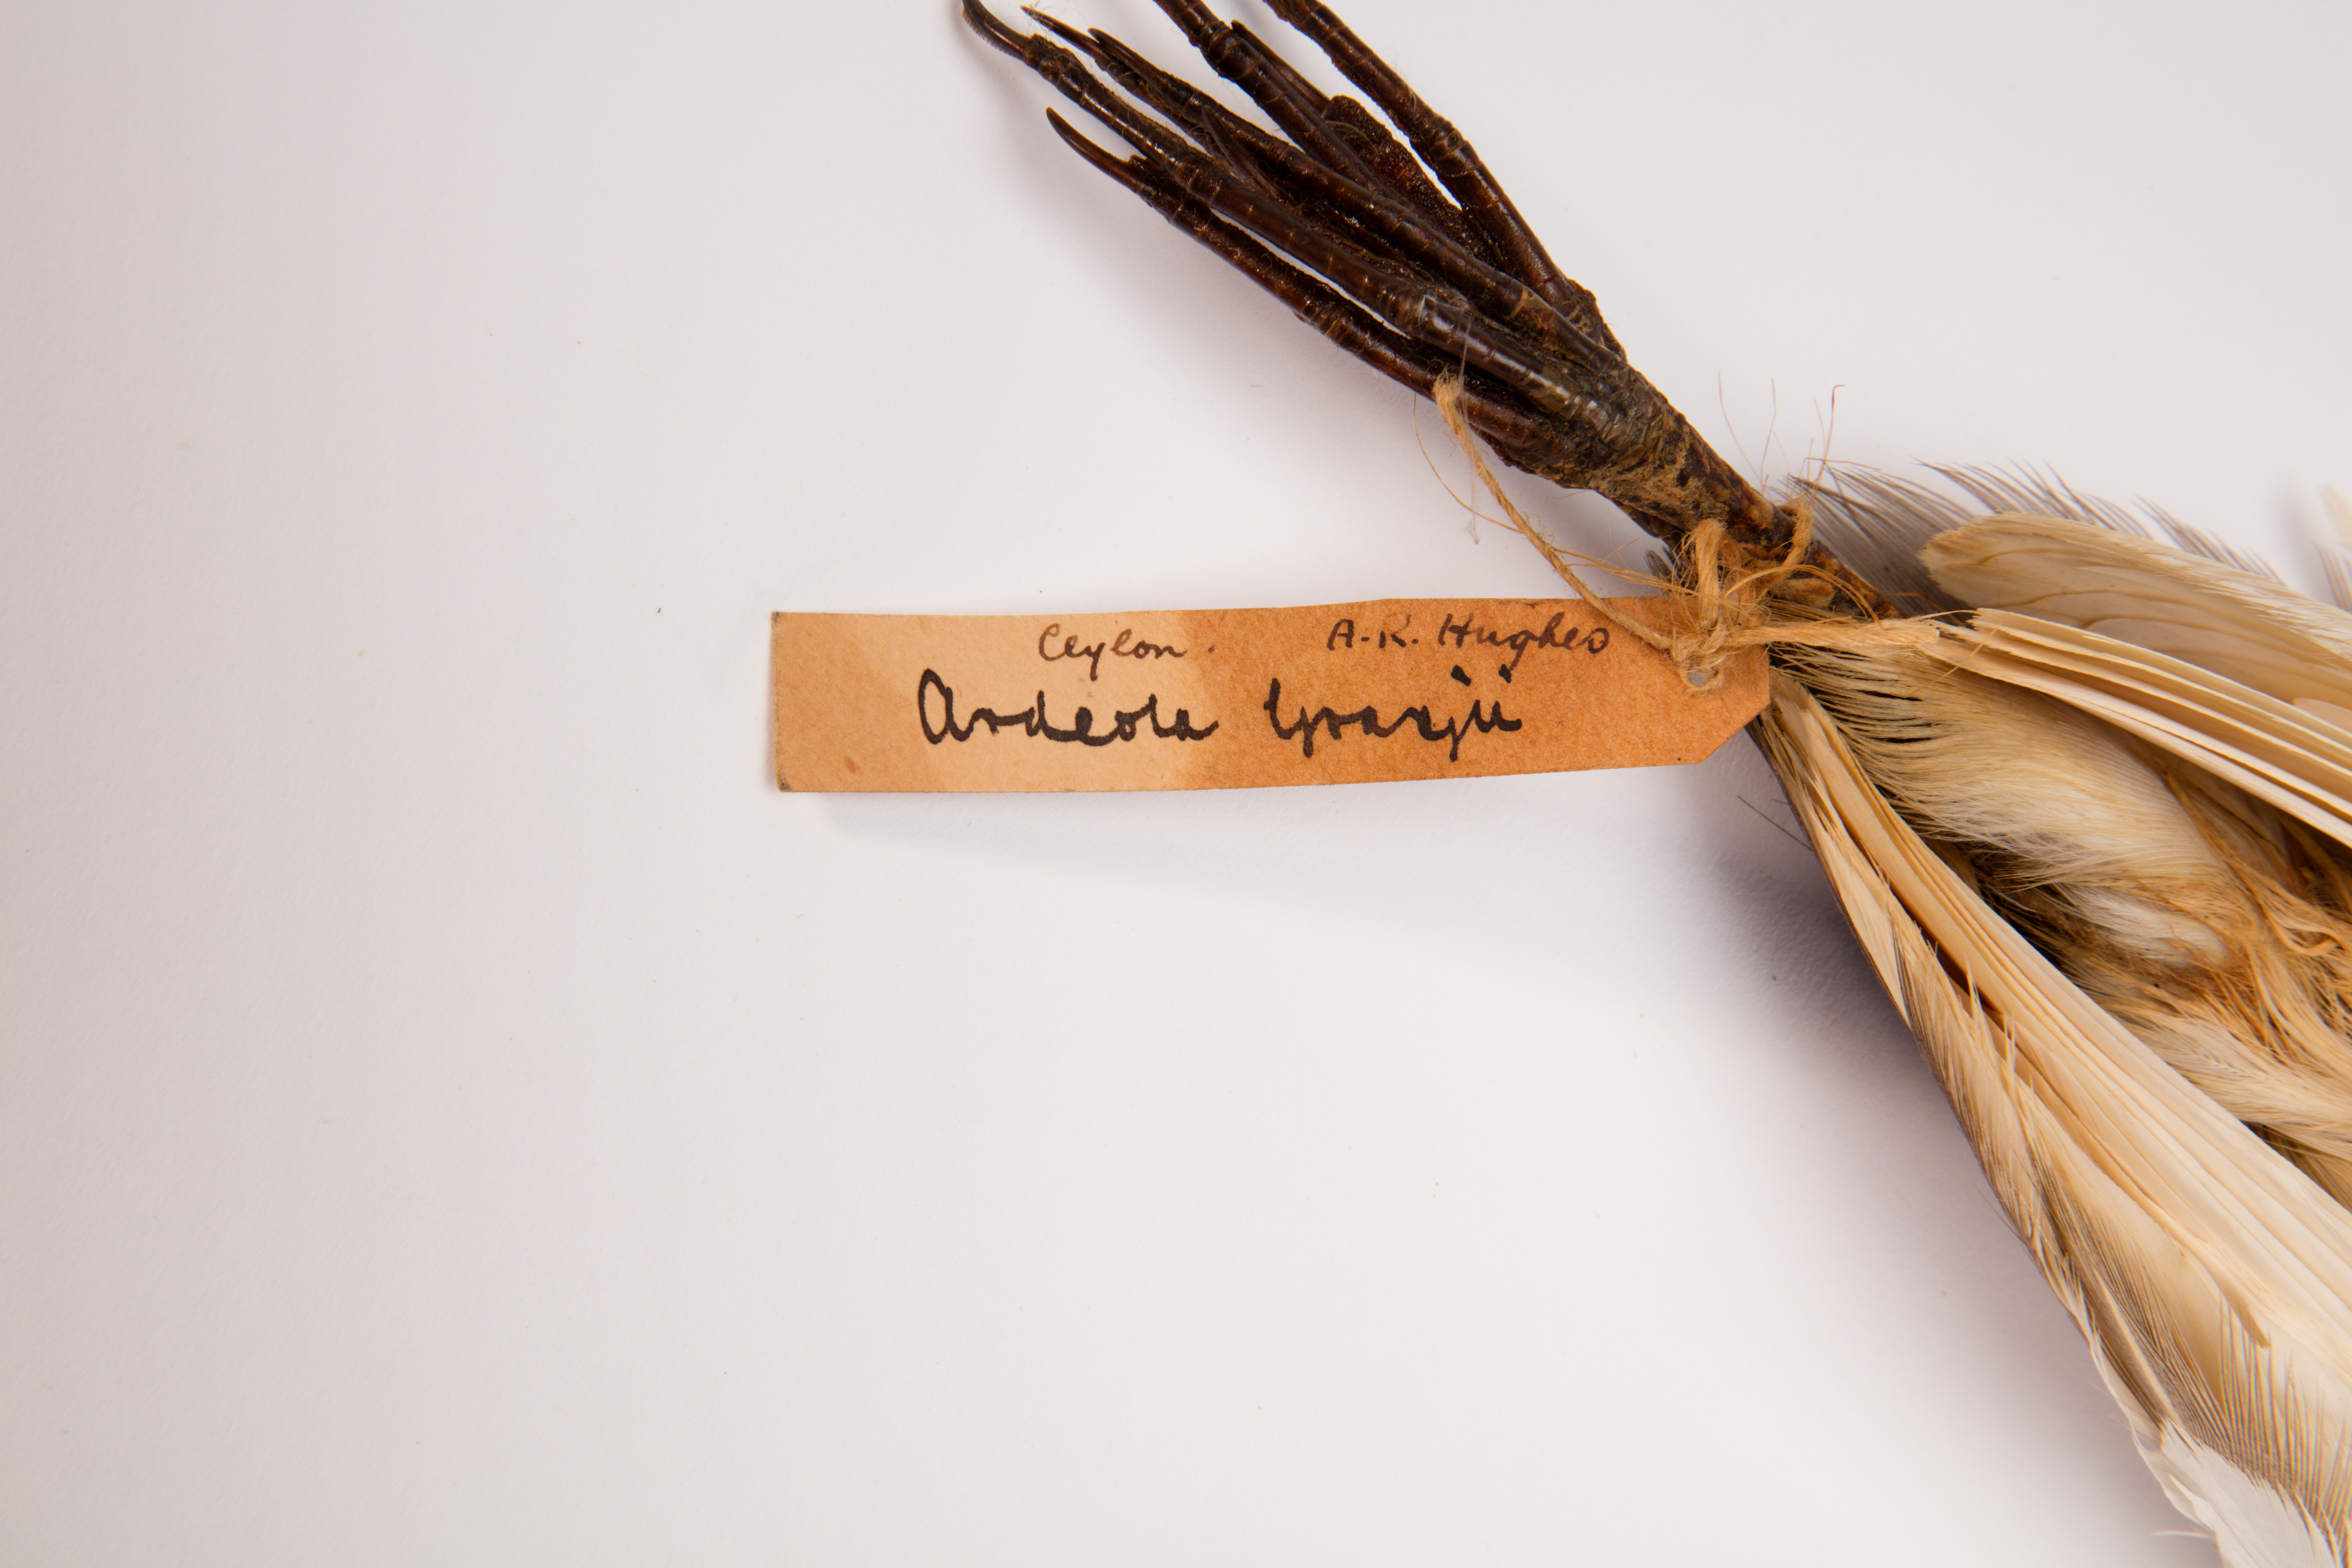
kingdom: Animalia
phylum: Chordata
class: Aves
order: Pelecaniformes
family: Ardeidae
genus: Ardeola
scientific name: Ardeola grayii
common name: Indian pond heron
